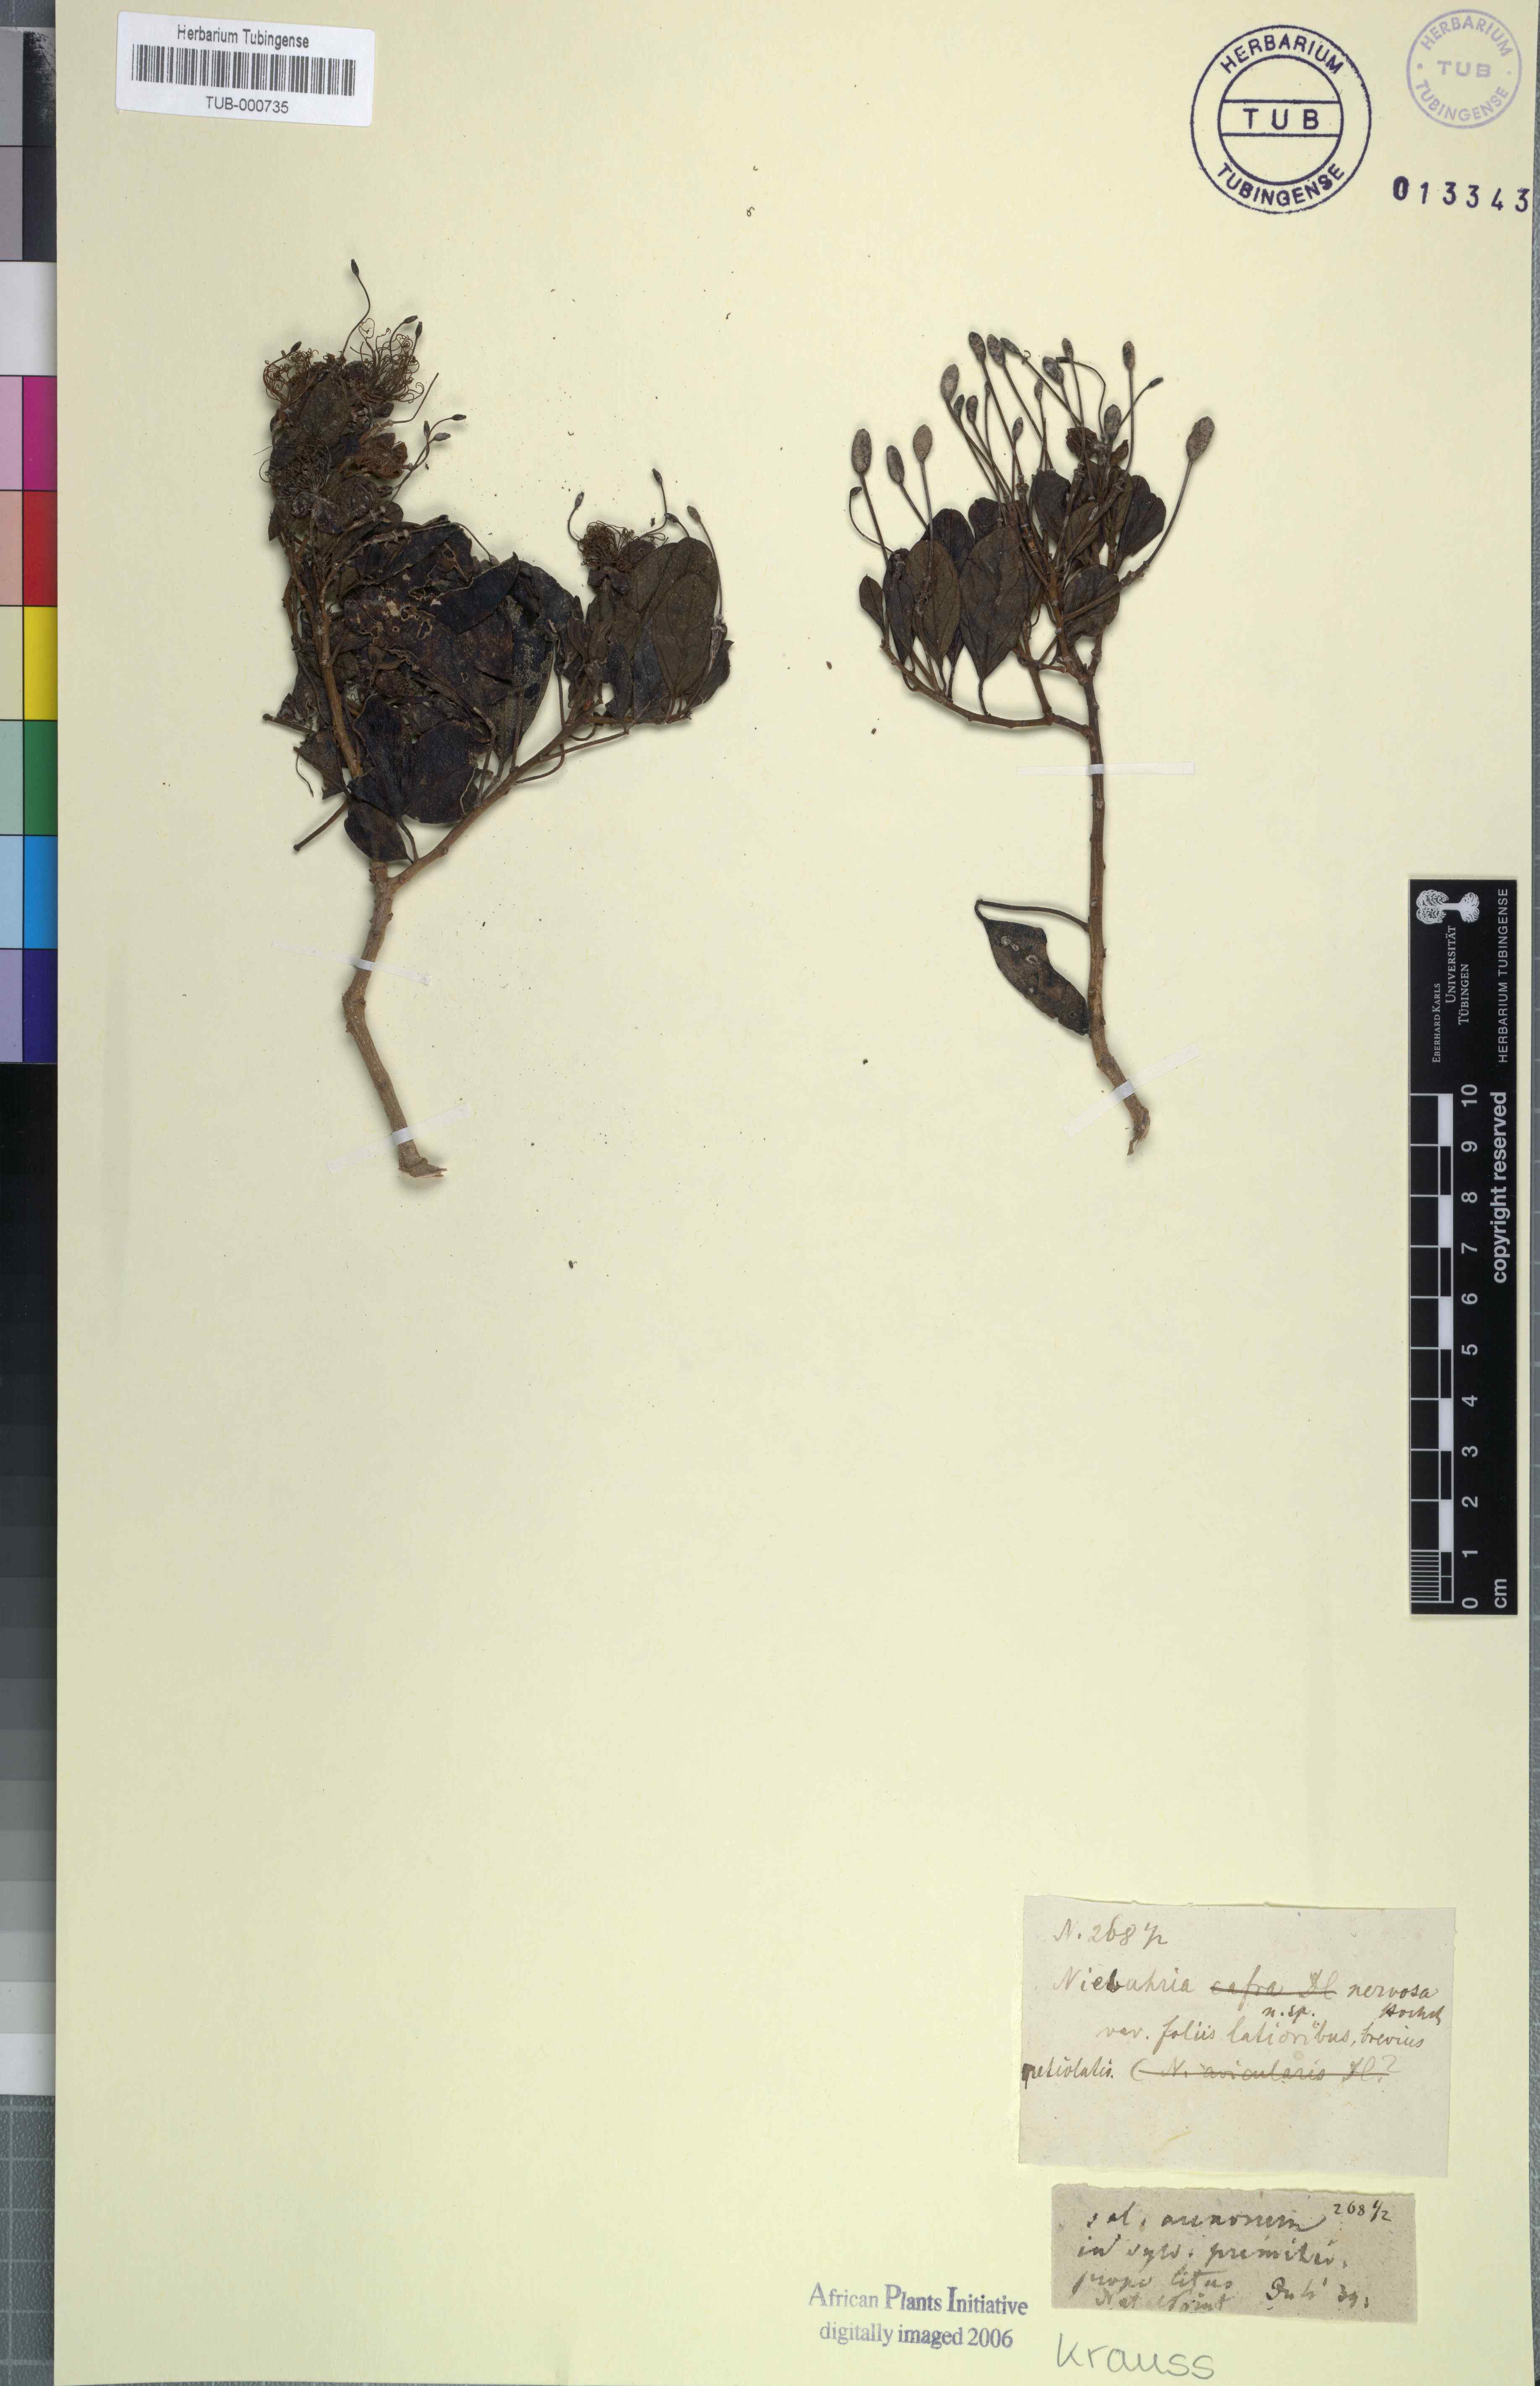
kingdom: Plantae
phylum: Tracheophyta
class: Magnoliopsida
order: Brassicales
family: Capparaceae
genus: Maerua
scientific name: Maerua nervosa
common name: Natal bush-cherry
